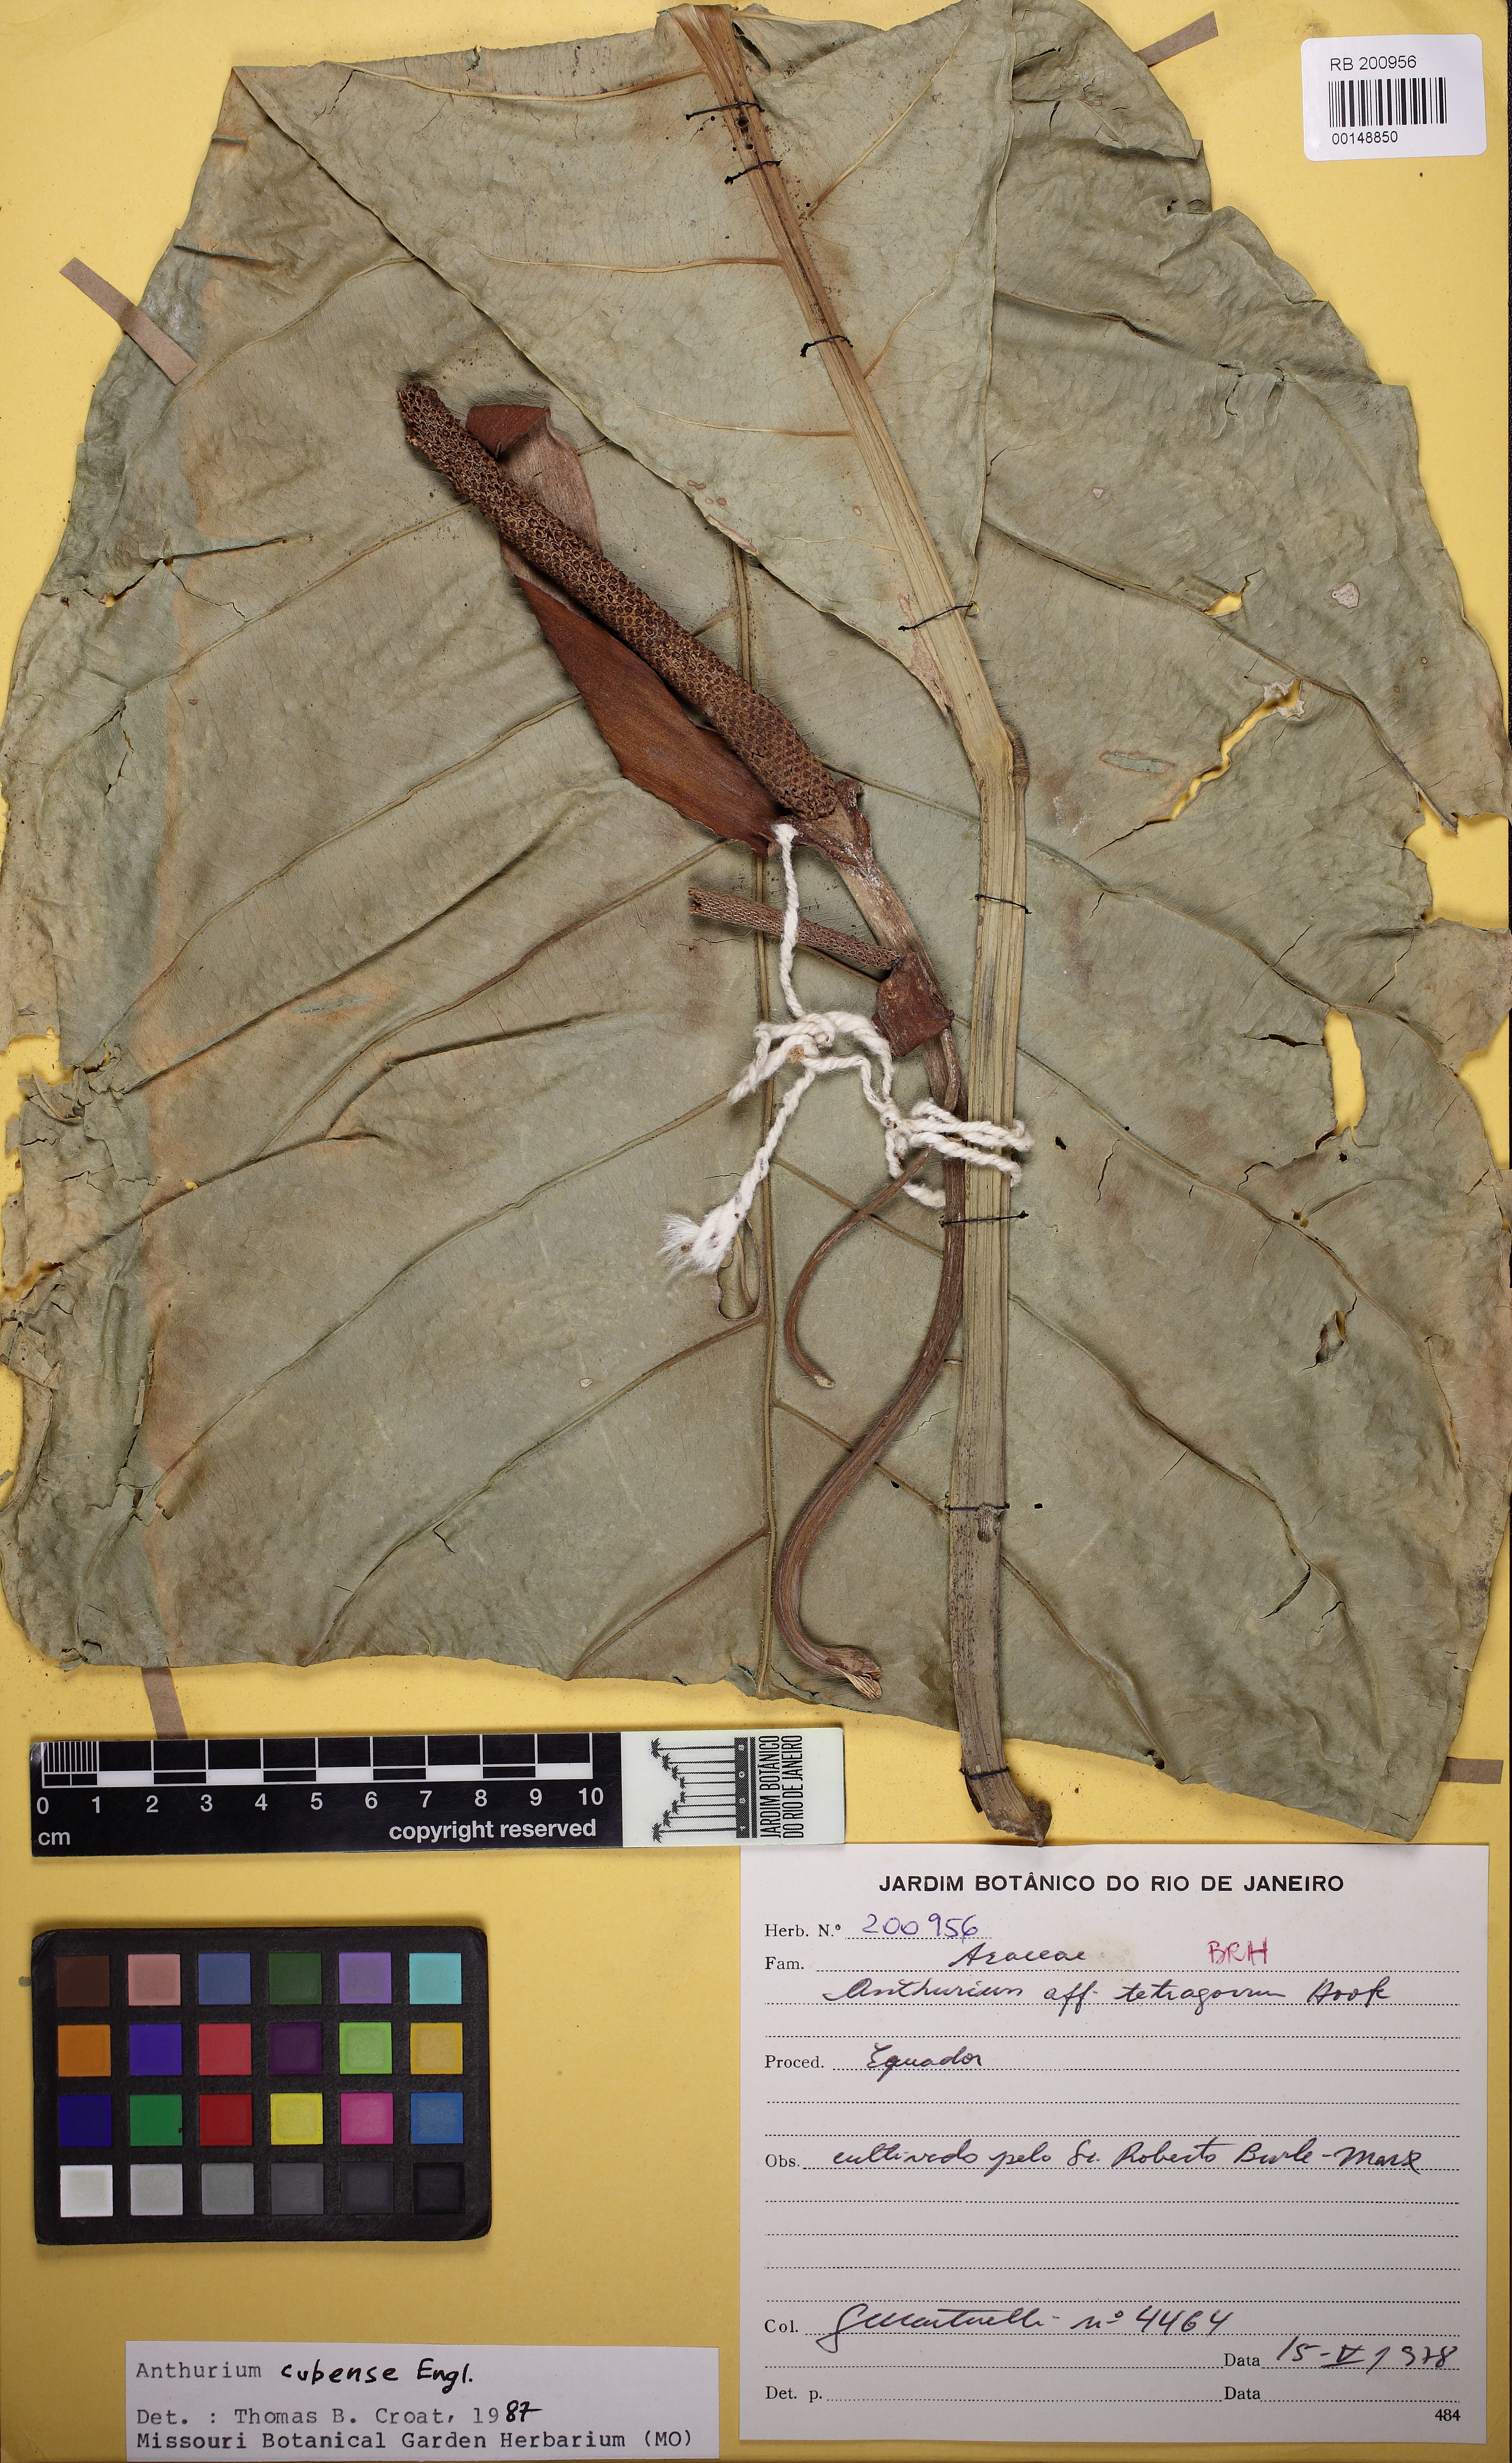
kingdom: Plantae
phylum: Tracheophyta
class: Liliopsida
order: Alismatales
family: Araceae
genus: Anthurium
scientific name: Anthurium cubense
